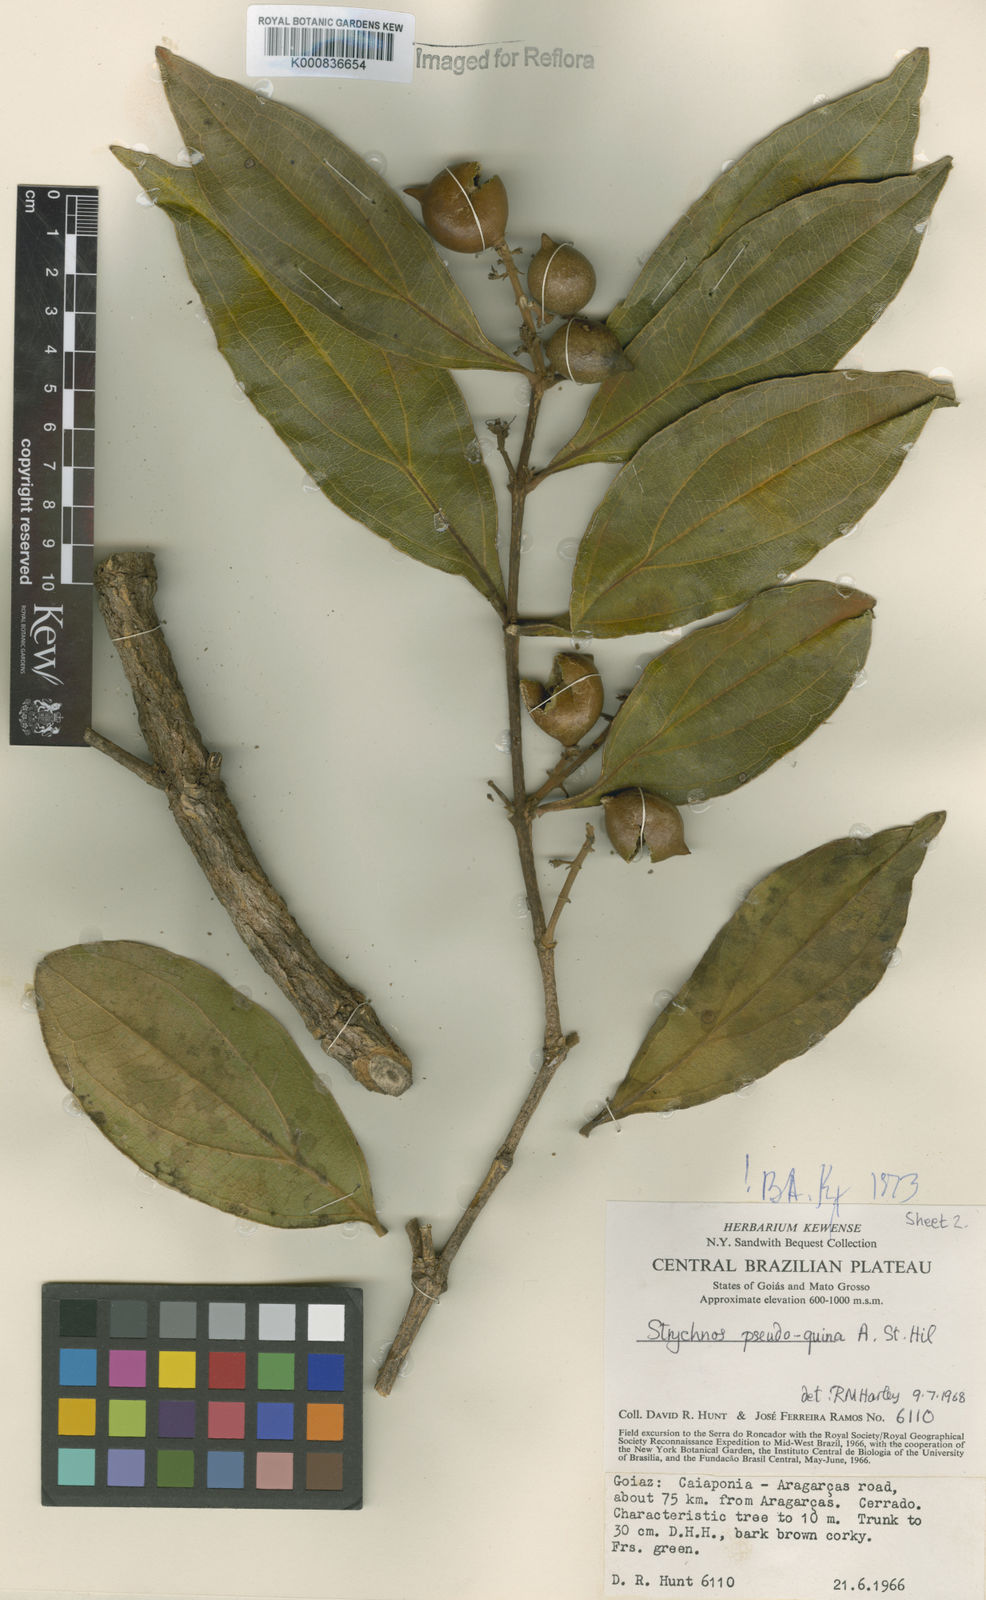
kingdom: Plantae
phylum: Tracheophyta
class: Magnoliopsida
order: Gentianales
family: Loganiaceae
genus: Strychnos
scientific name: Strychnos pseudoquina
